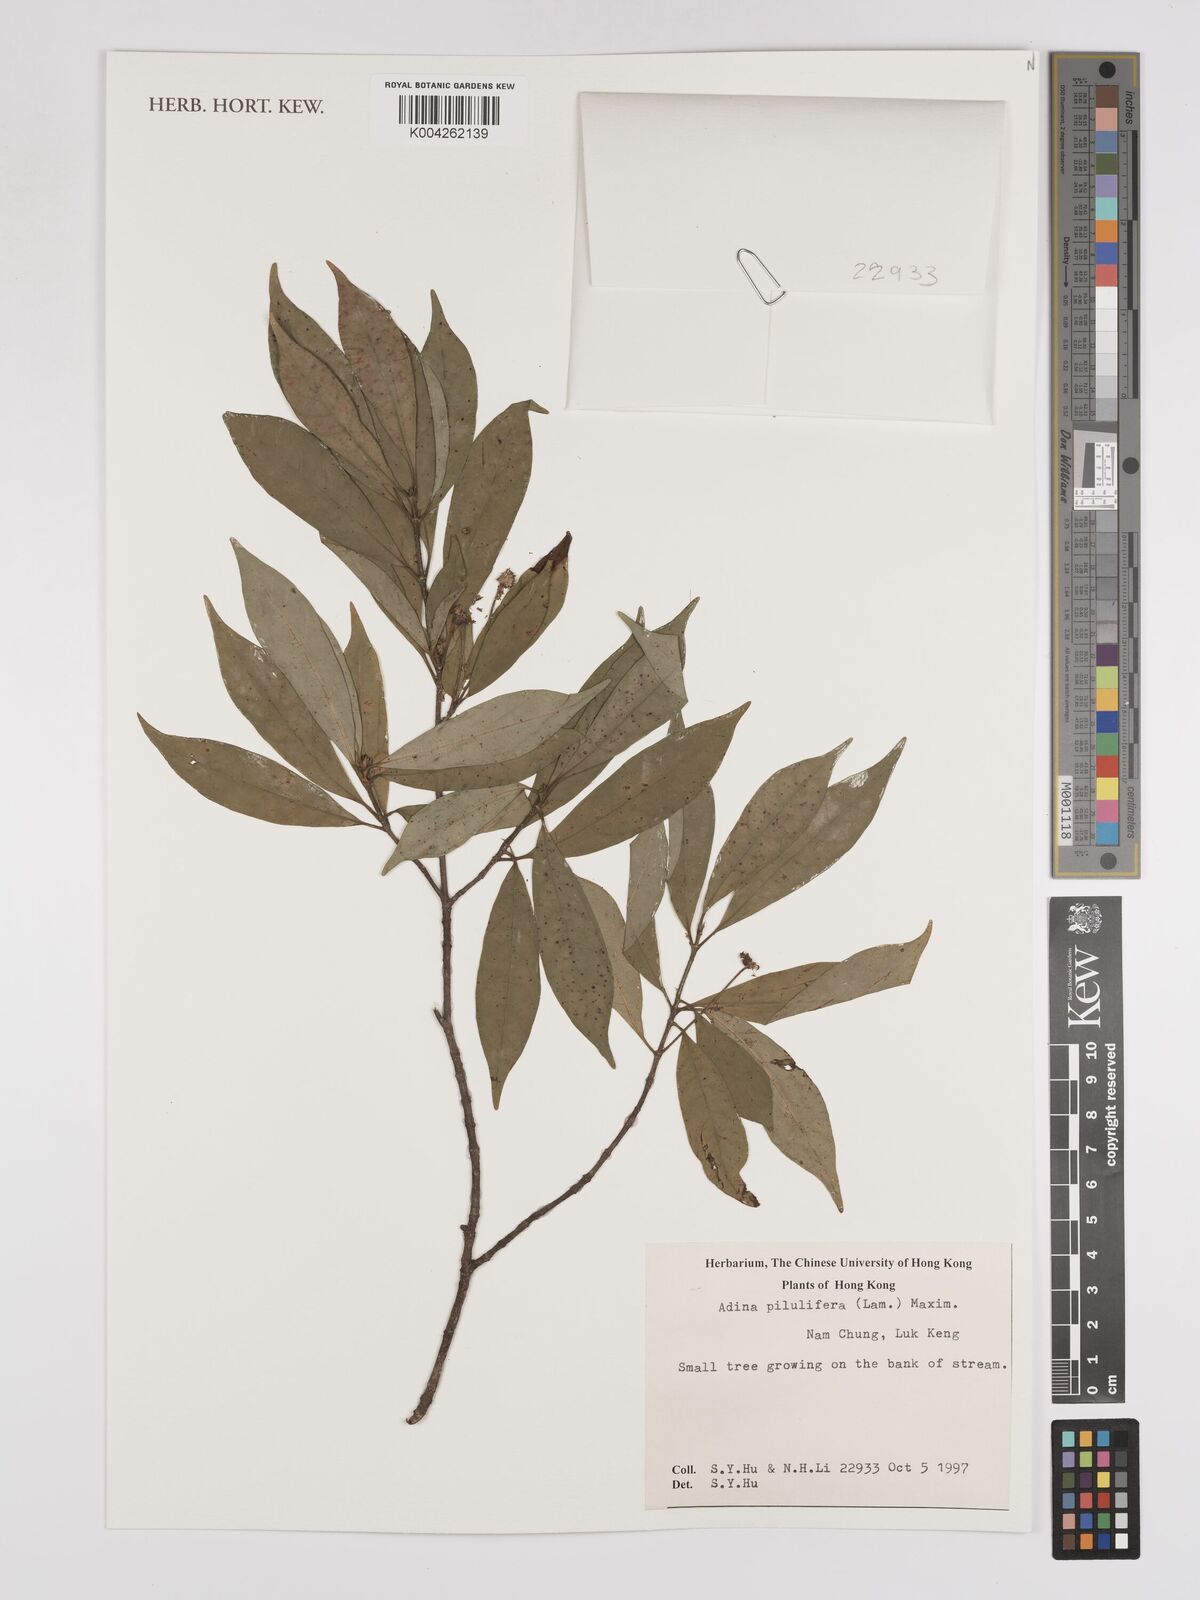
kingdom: Plantae
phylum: Tracheophyta
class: Magnoliopsida
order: Gentianales
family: Rubiaceae
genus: Adina
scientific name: Adina pilulifera
